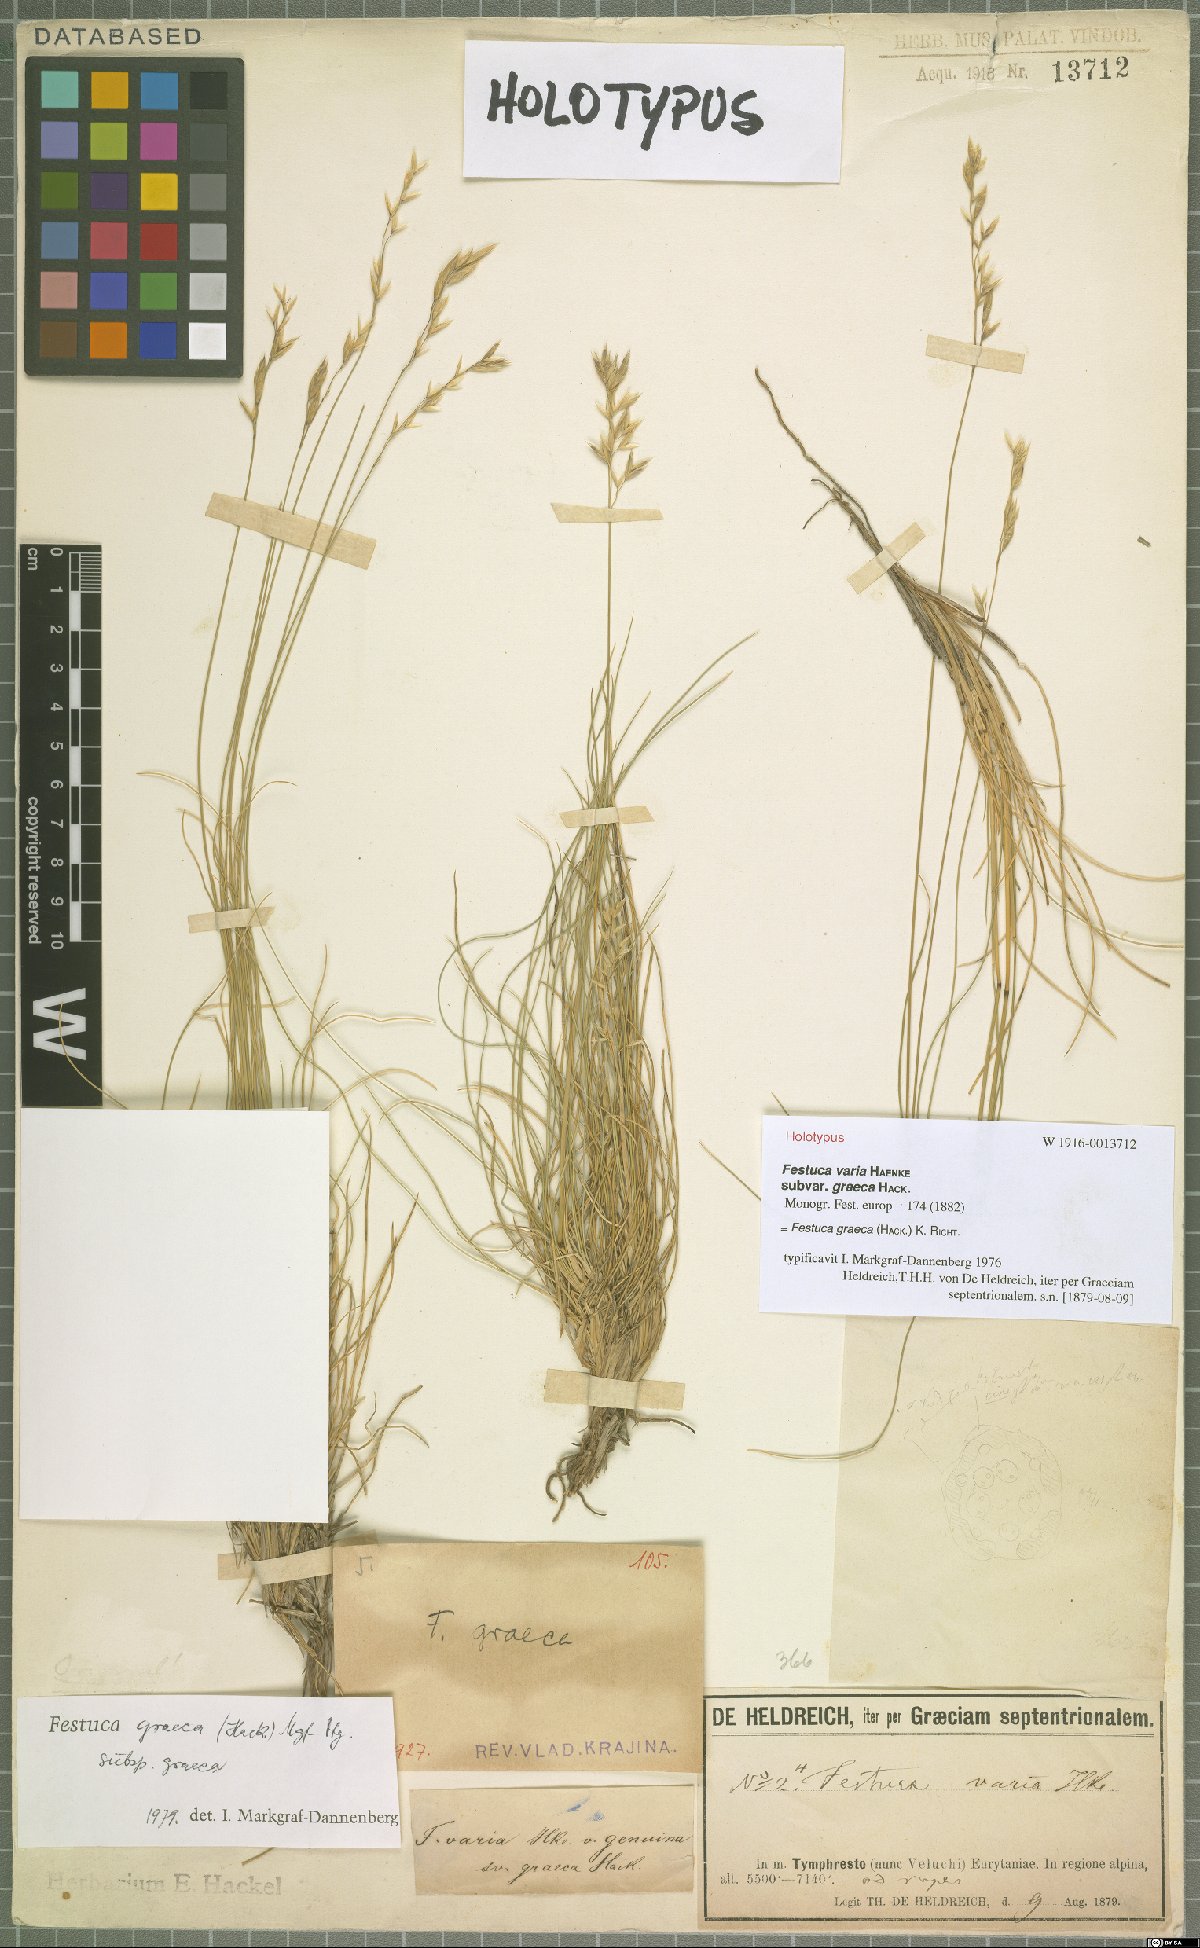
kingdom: Plantae
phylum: Tracheophyta
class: Liliopsida
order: Poales
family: Poaceae
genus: Festuca
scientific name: Festuca graeca
